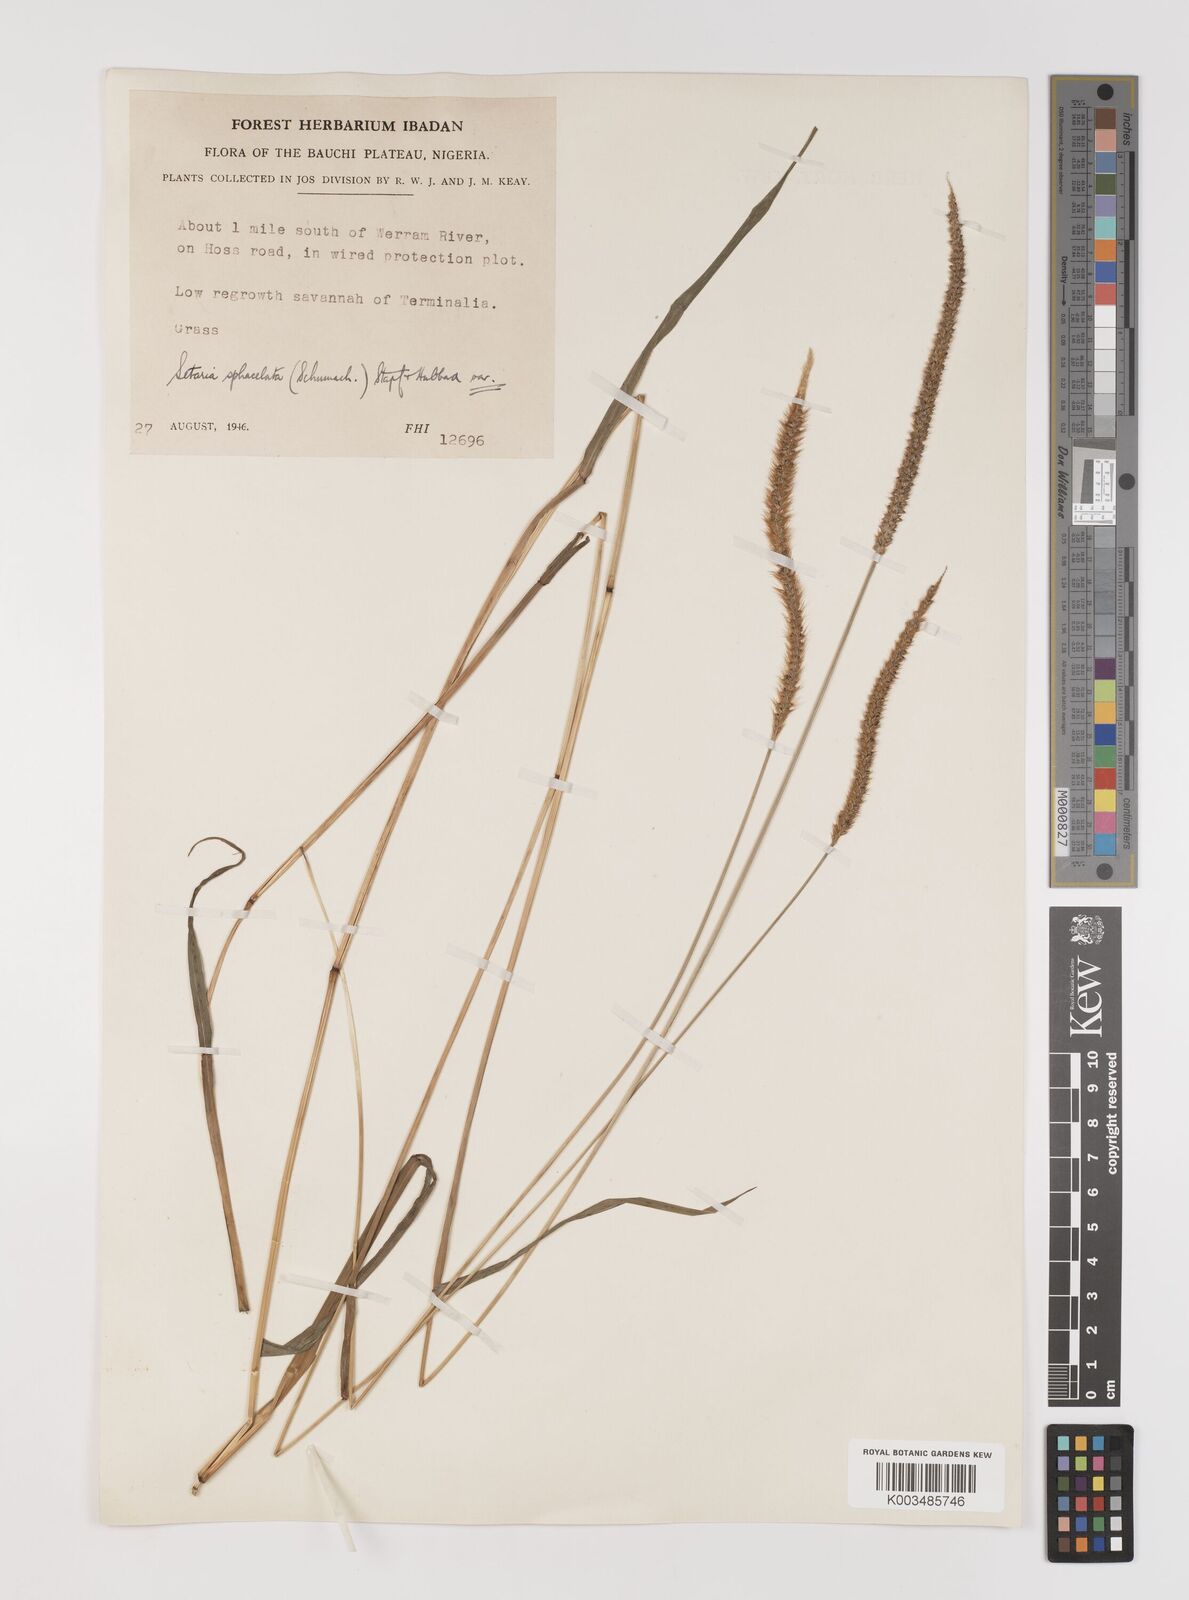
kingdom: Plantae
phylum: Tracheophyta
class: Liliopsida
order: Poales
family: Poaceae
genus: Setaria
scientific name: Setaria sphacelata
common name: African bristlegrass
